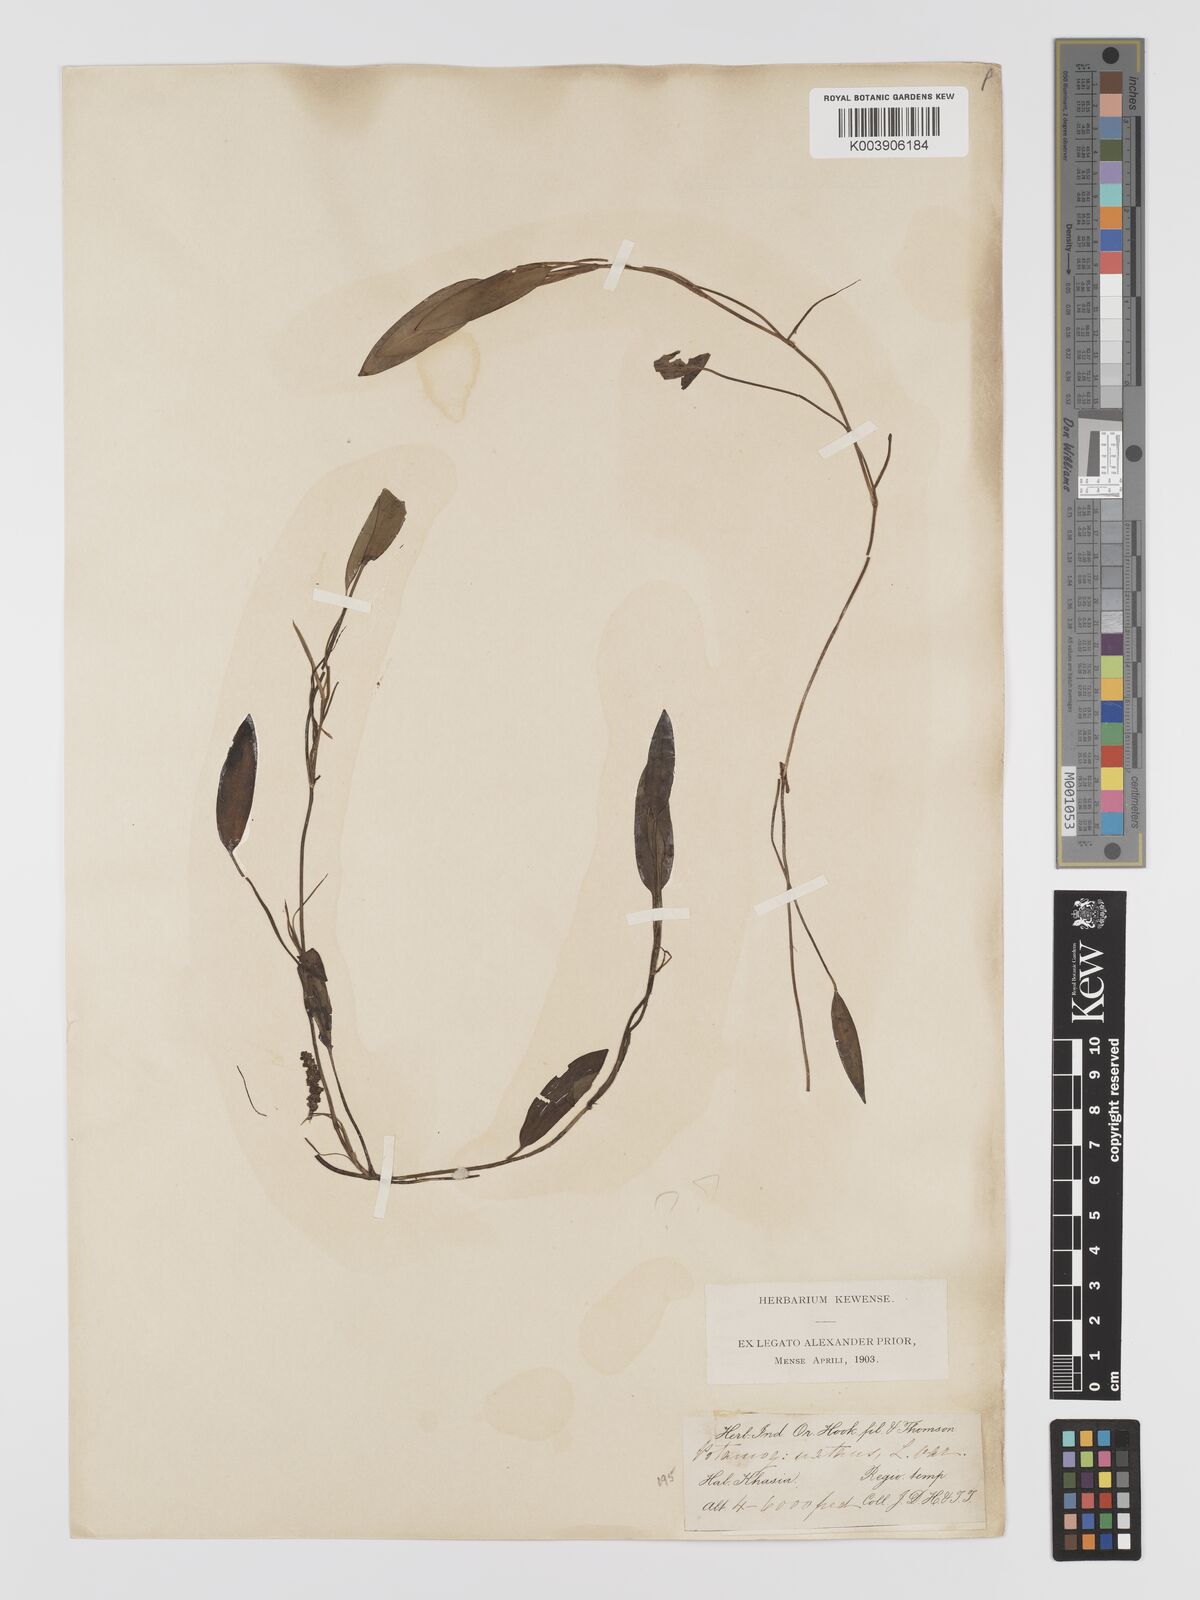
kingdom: Plantae
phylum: Tracheophyta
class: Liliopsida
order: Alismatales
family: Potamogetonaceae
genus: Potamogeton
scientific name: Potamogeton yamagataensis
